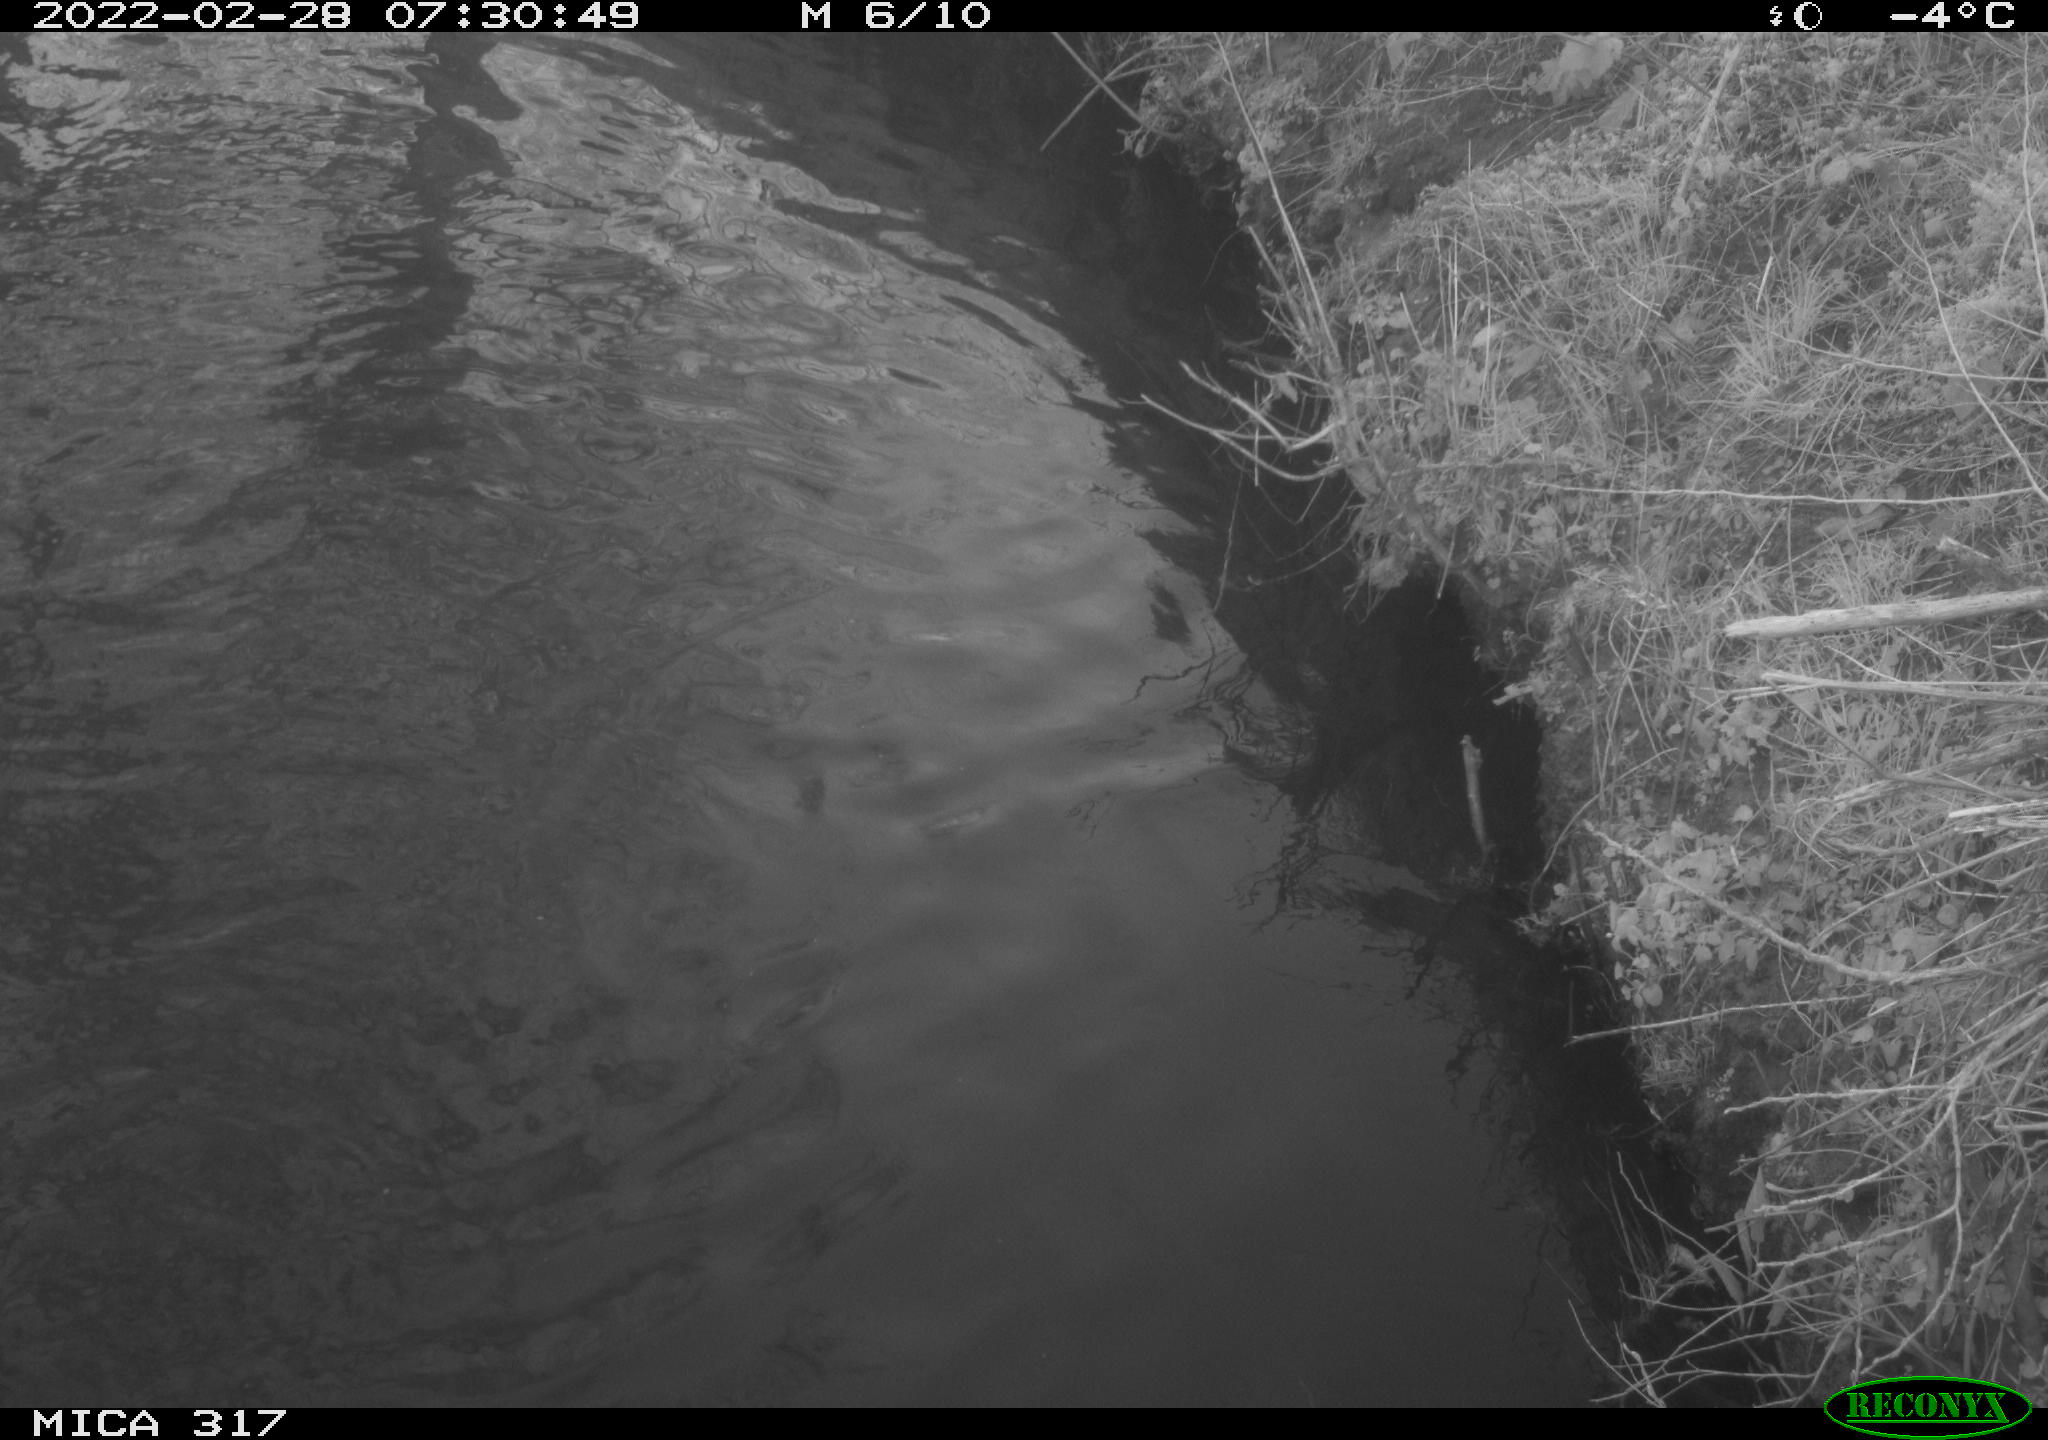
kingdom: Animalia
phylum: Chordata
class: Aves
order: Anseriformes
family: Anatidae
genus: Anas
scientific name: Anas platyrhynchos
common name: Mallard
